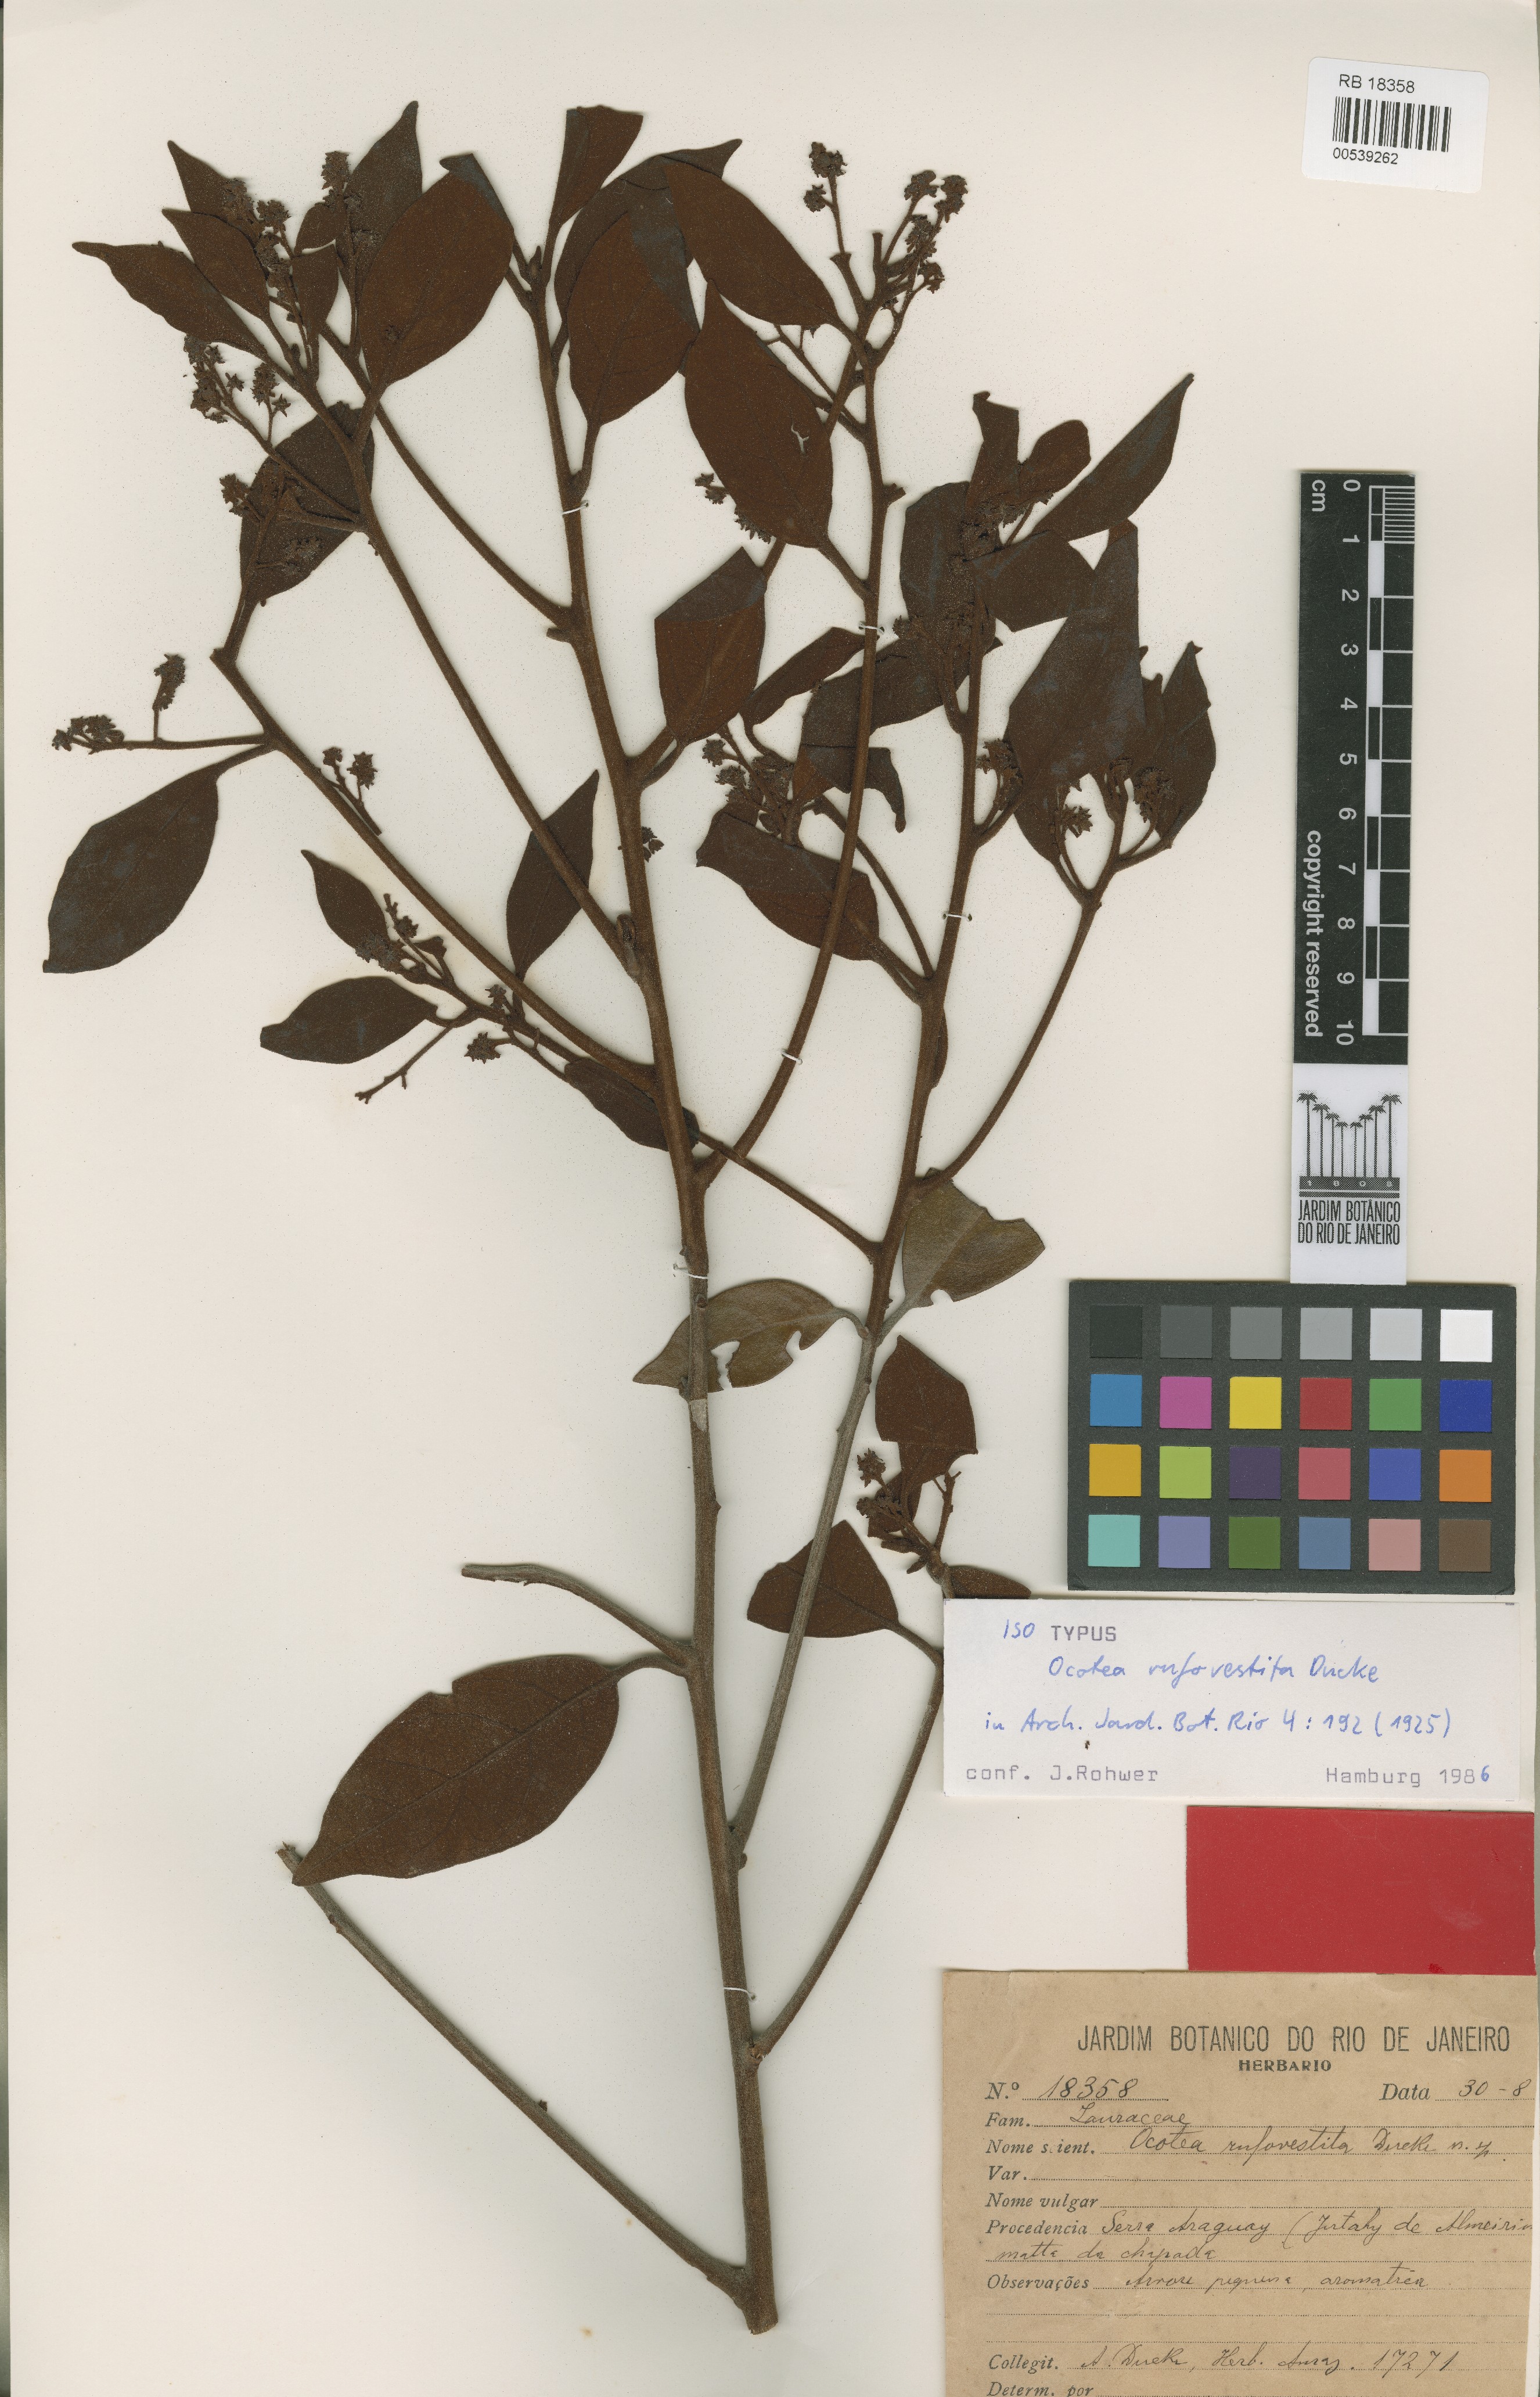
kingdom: Plantae
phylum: Tracheophyta
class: Magnoliopsida
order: Laurales
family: Lauraceae
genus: Ocotea
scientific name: Ocotea rufovestita
